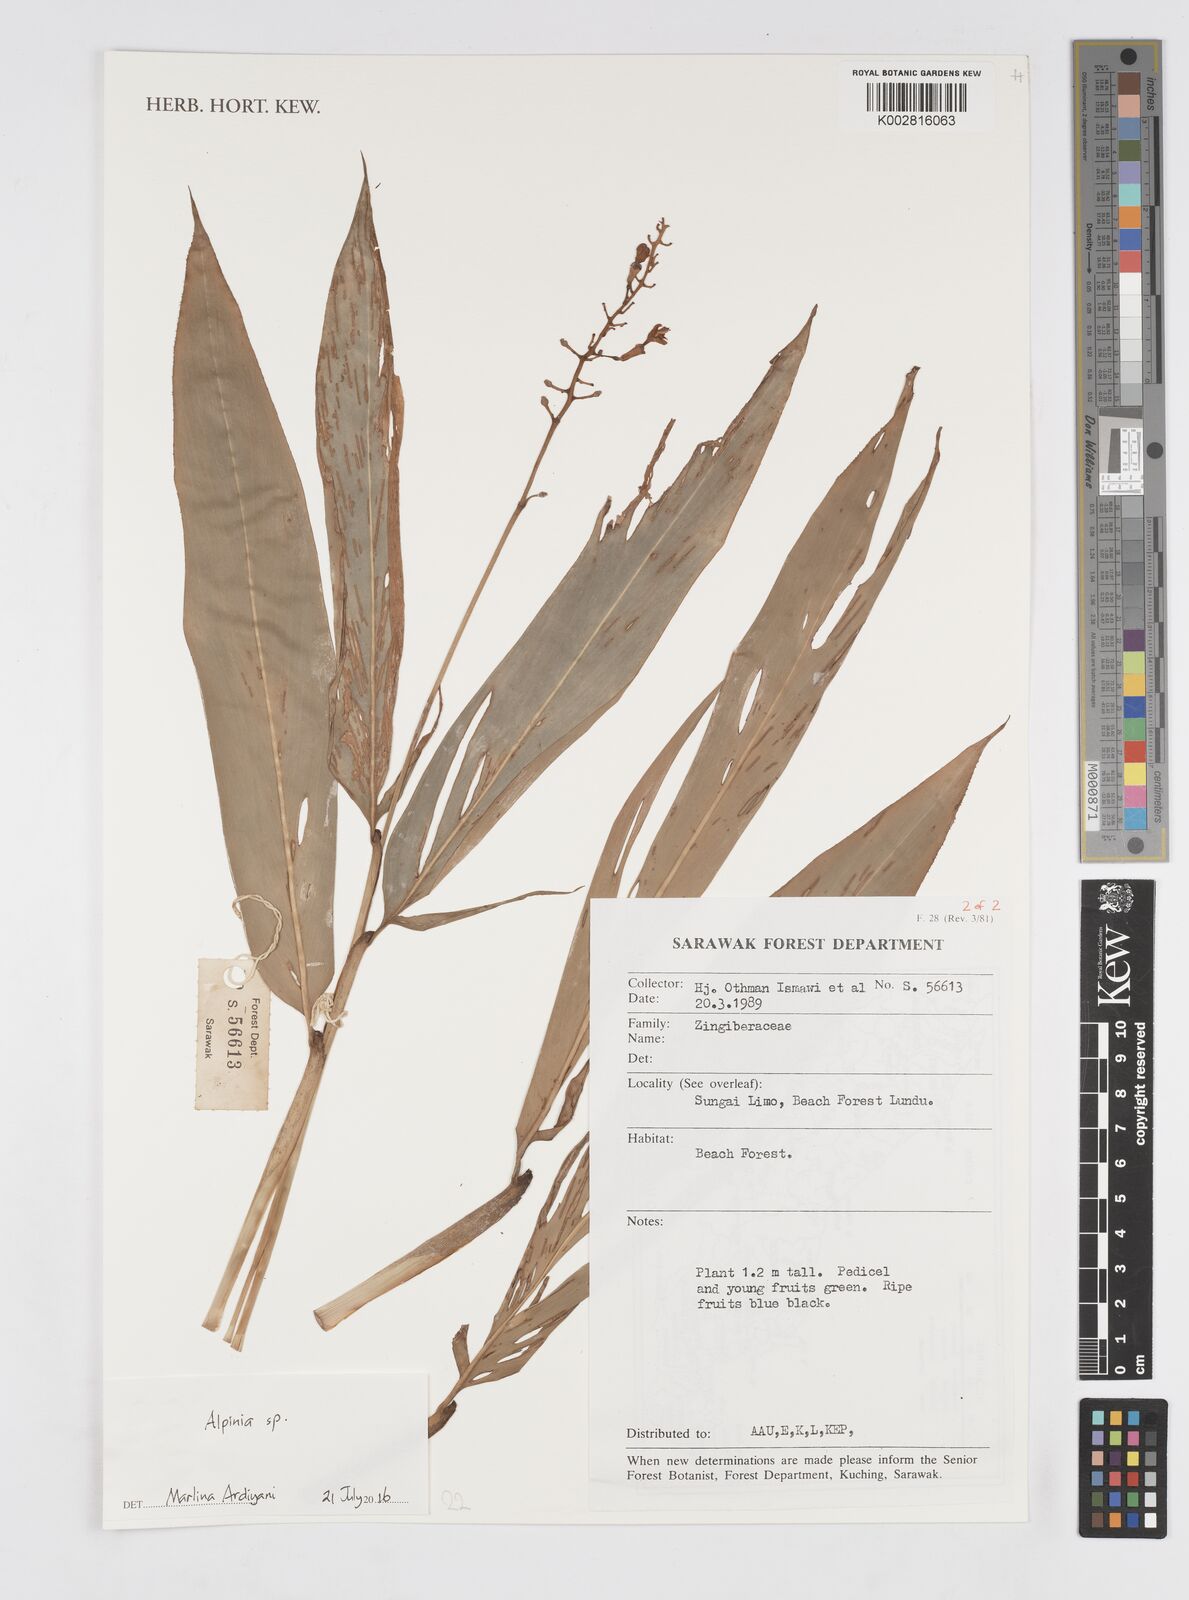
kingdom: Plantae
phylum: Tracheophyta
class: Liliopsida
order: Zingiberales
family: Zingiberaceae
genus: Alpinia
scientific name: Alpinia
